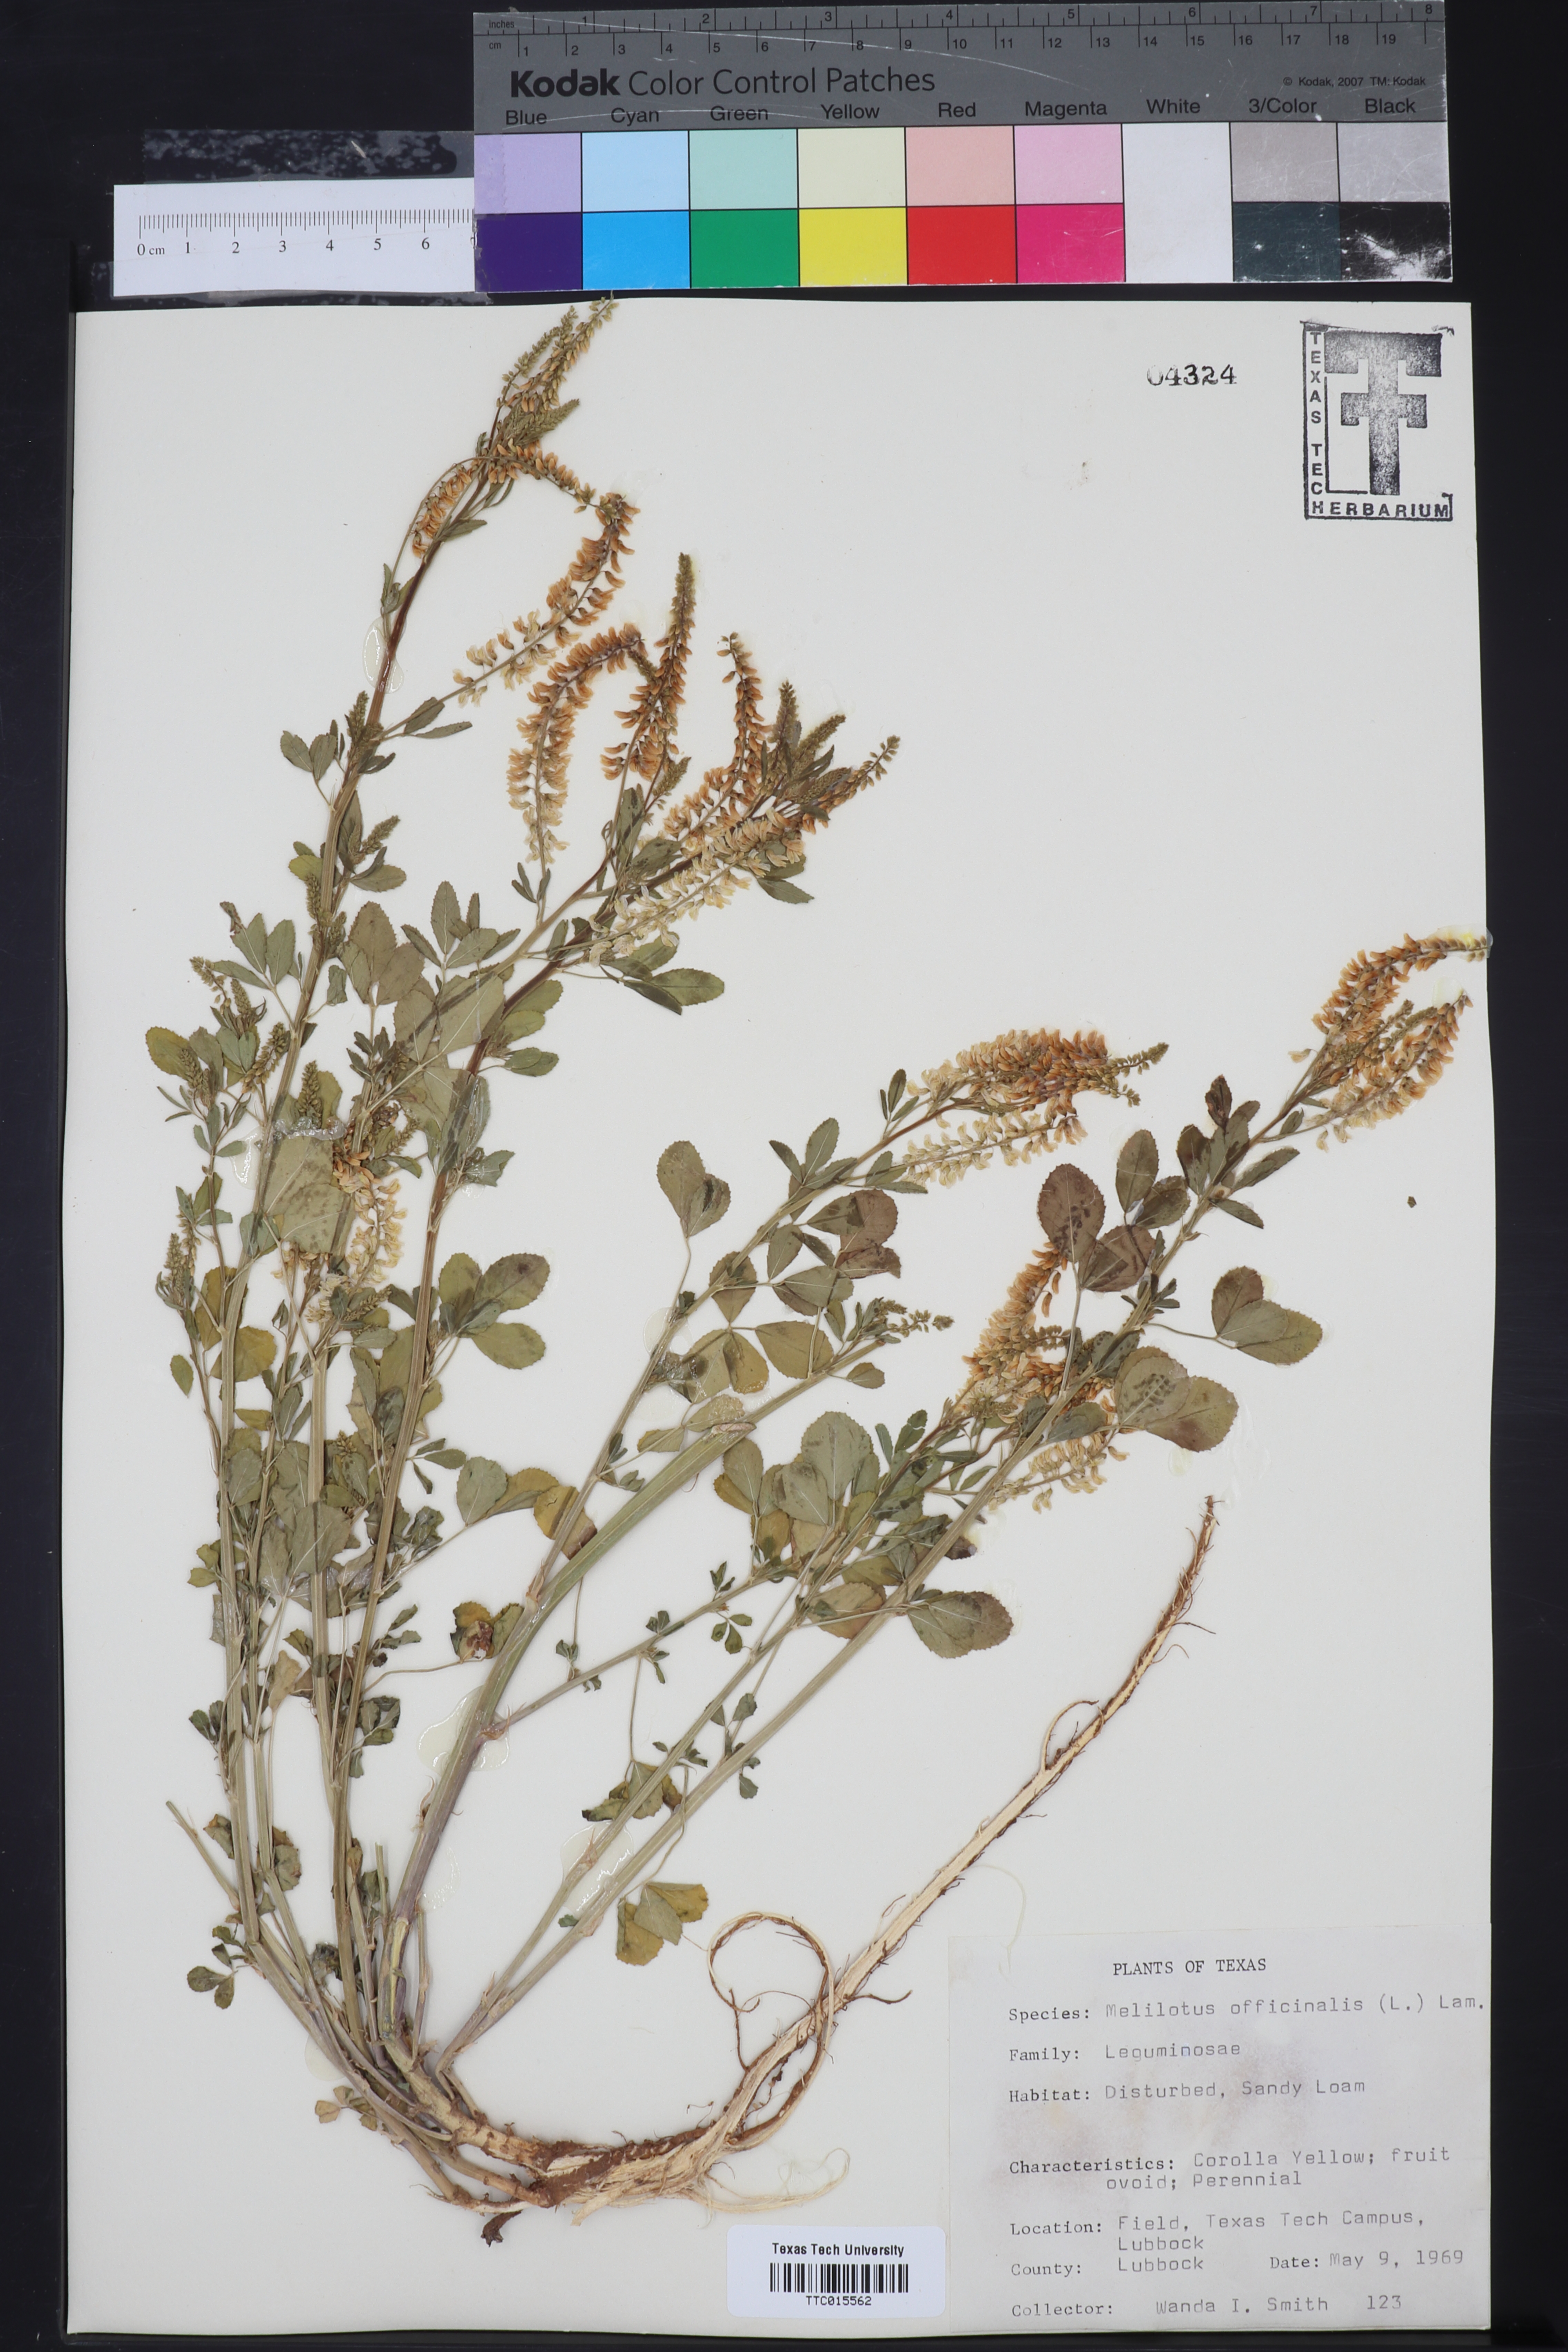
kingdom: Plantae
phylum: Tracheophyta
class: Magnoliopsida
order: Fabales
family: Fabaceae
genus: Melilotus
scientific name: Melilotus officinalis
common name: Sweetclover
